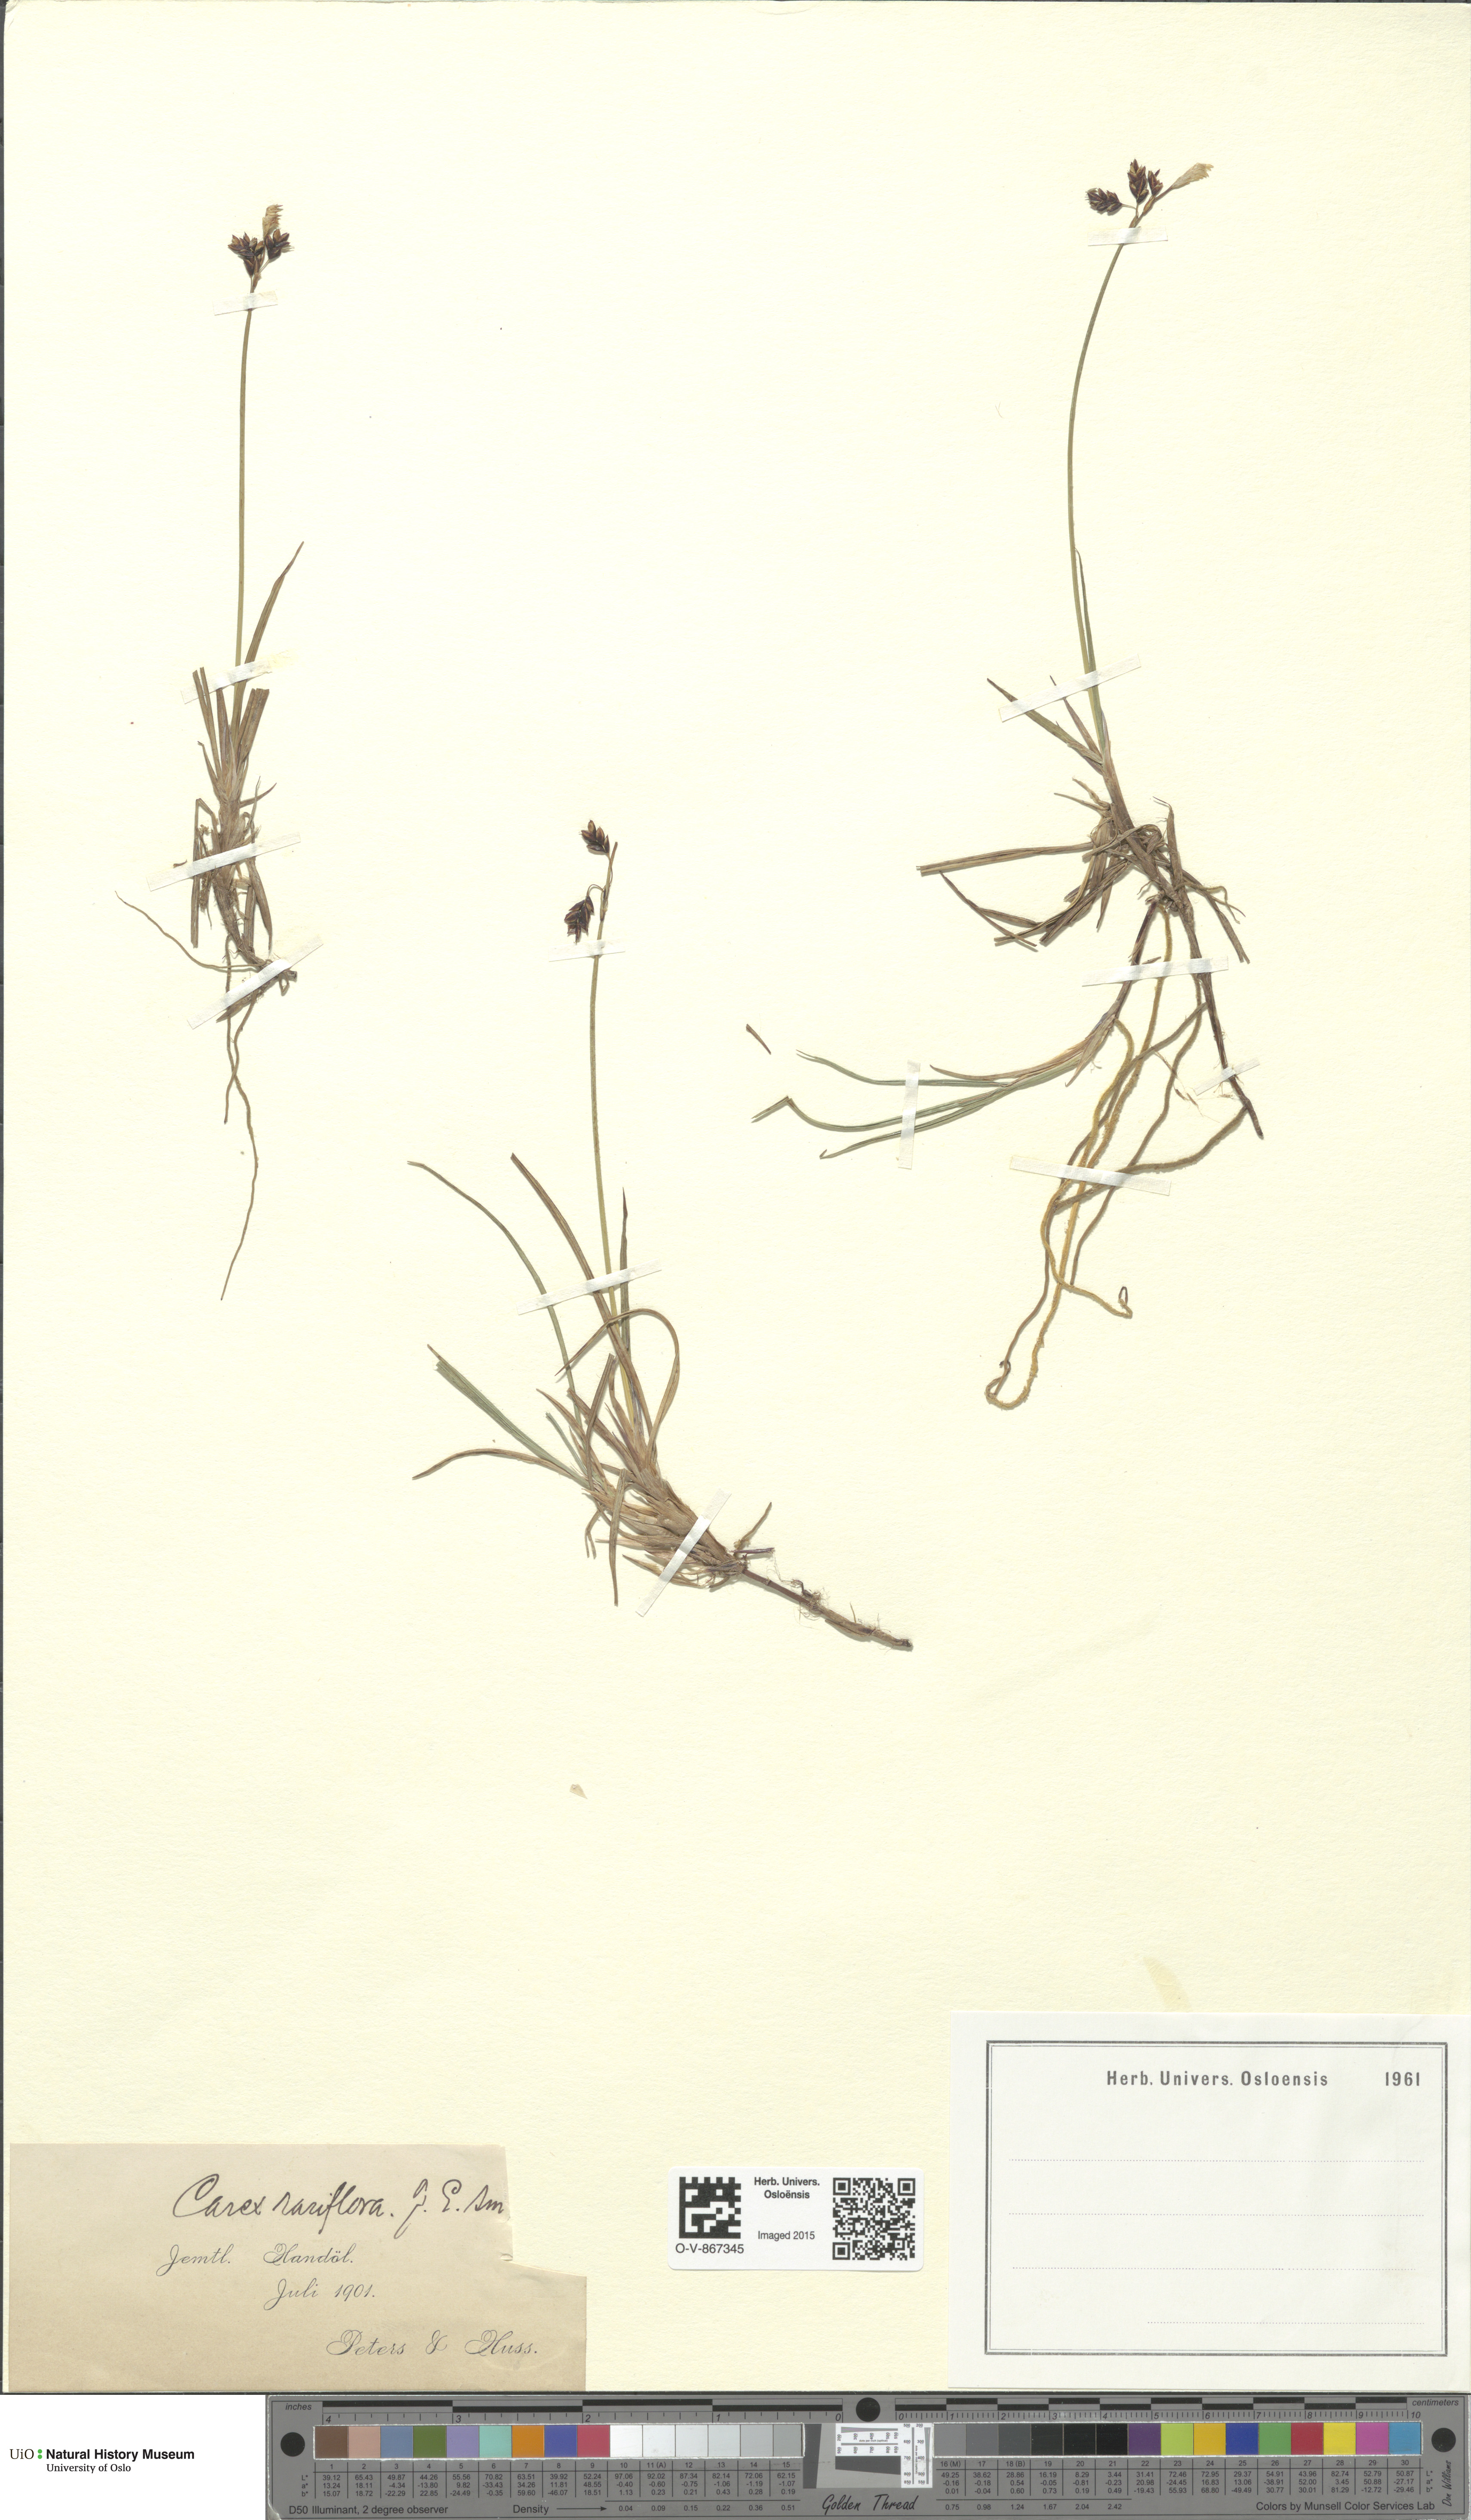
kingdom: Plantae
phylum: Tracheophyta
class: Liliopsida
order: Poales
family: Cyperaceae
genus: Carex
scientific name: Carex rariflora
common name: Loose-flowered alpine sedge
